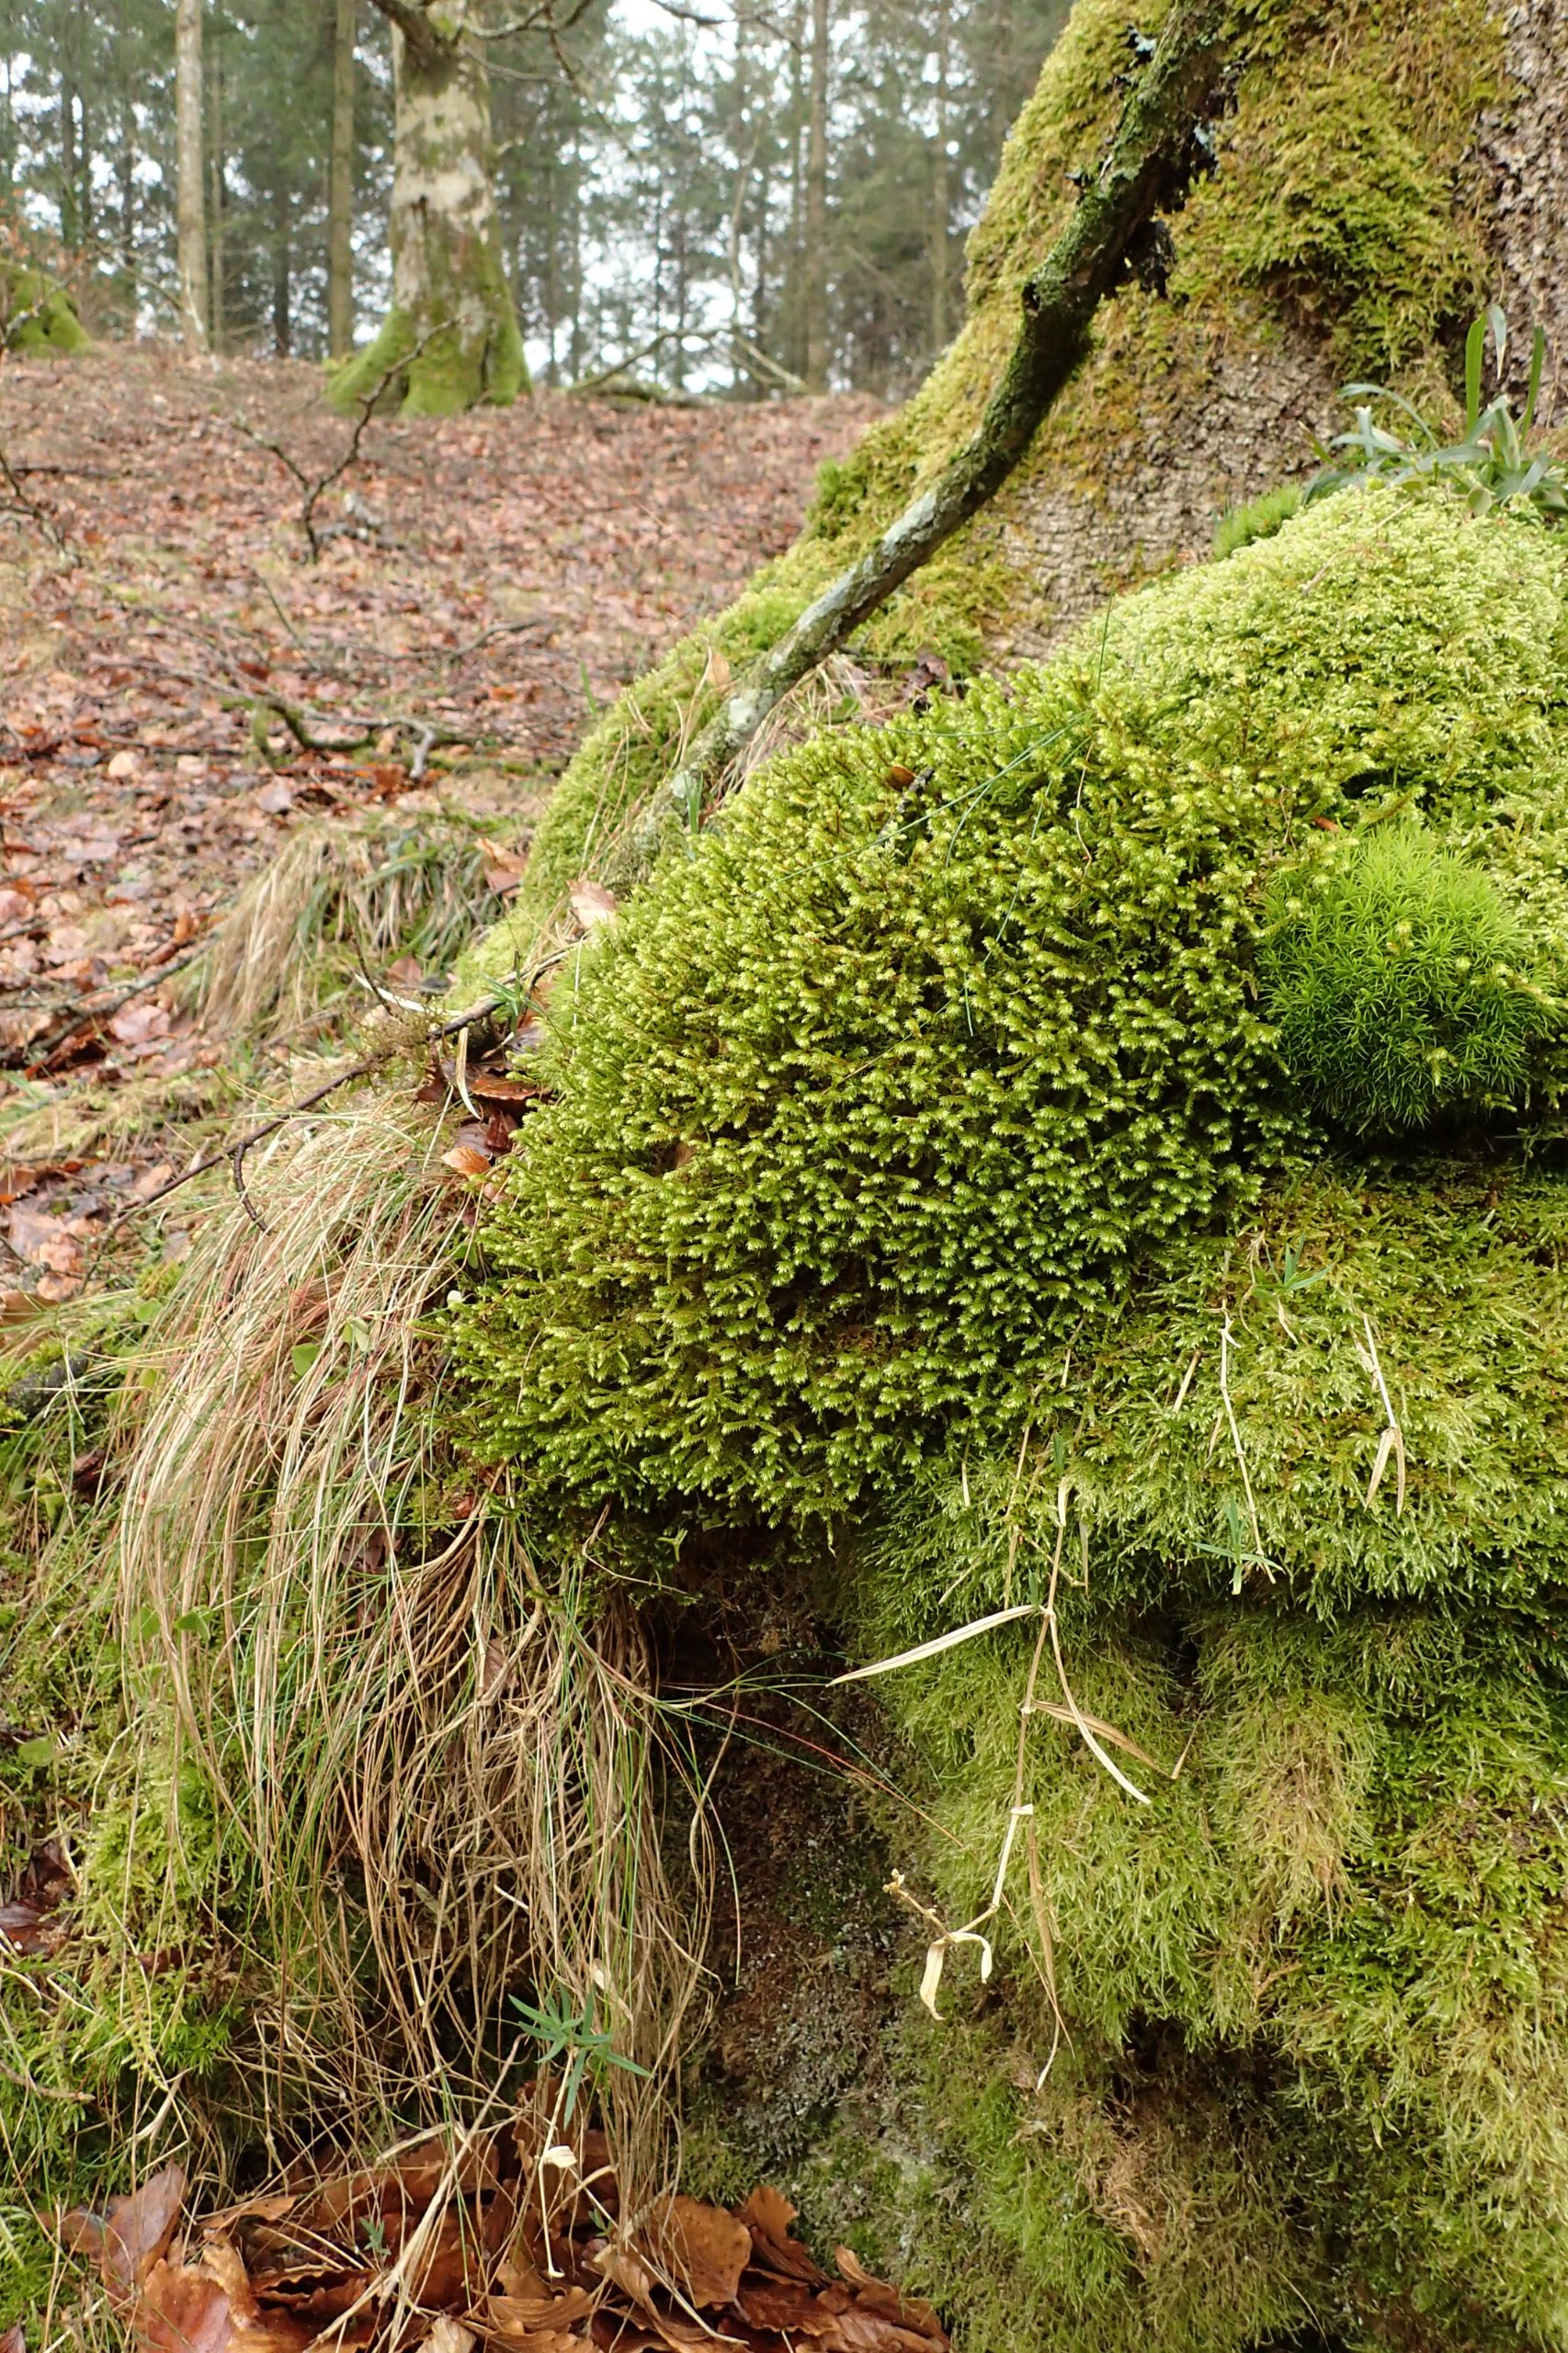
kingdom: Plantae
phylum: Bryophyta
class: Bryopsida
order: Hypnales
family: Antitrichiaceae
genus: Antitrichia
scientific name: Antitrichia curtipendula
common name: Åben krogtand
